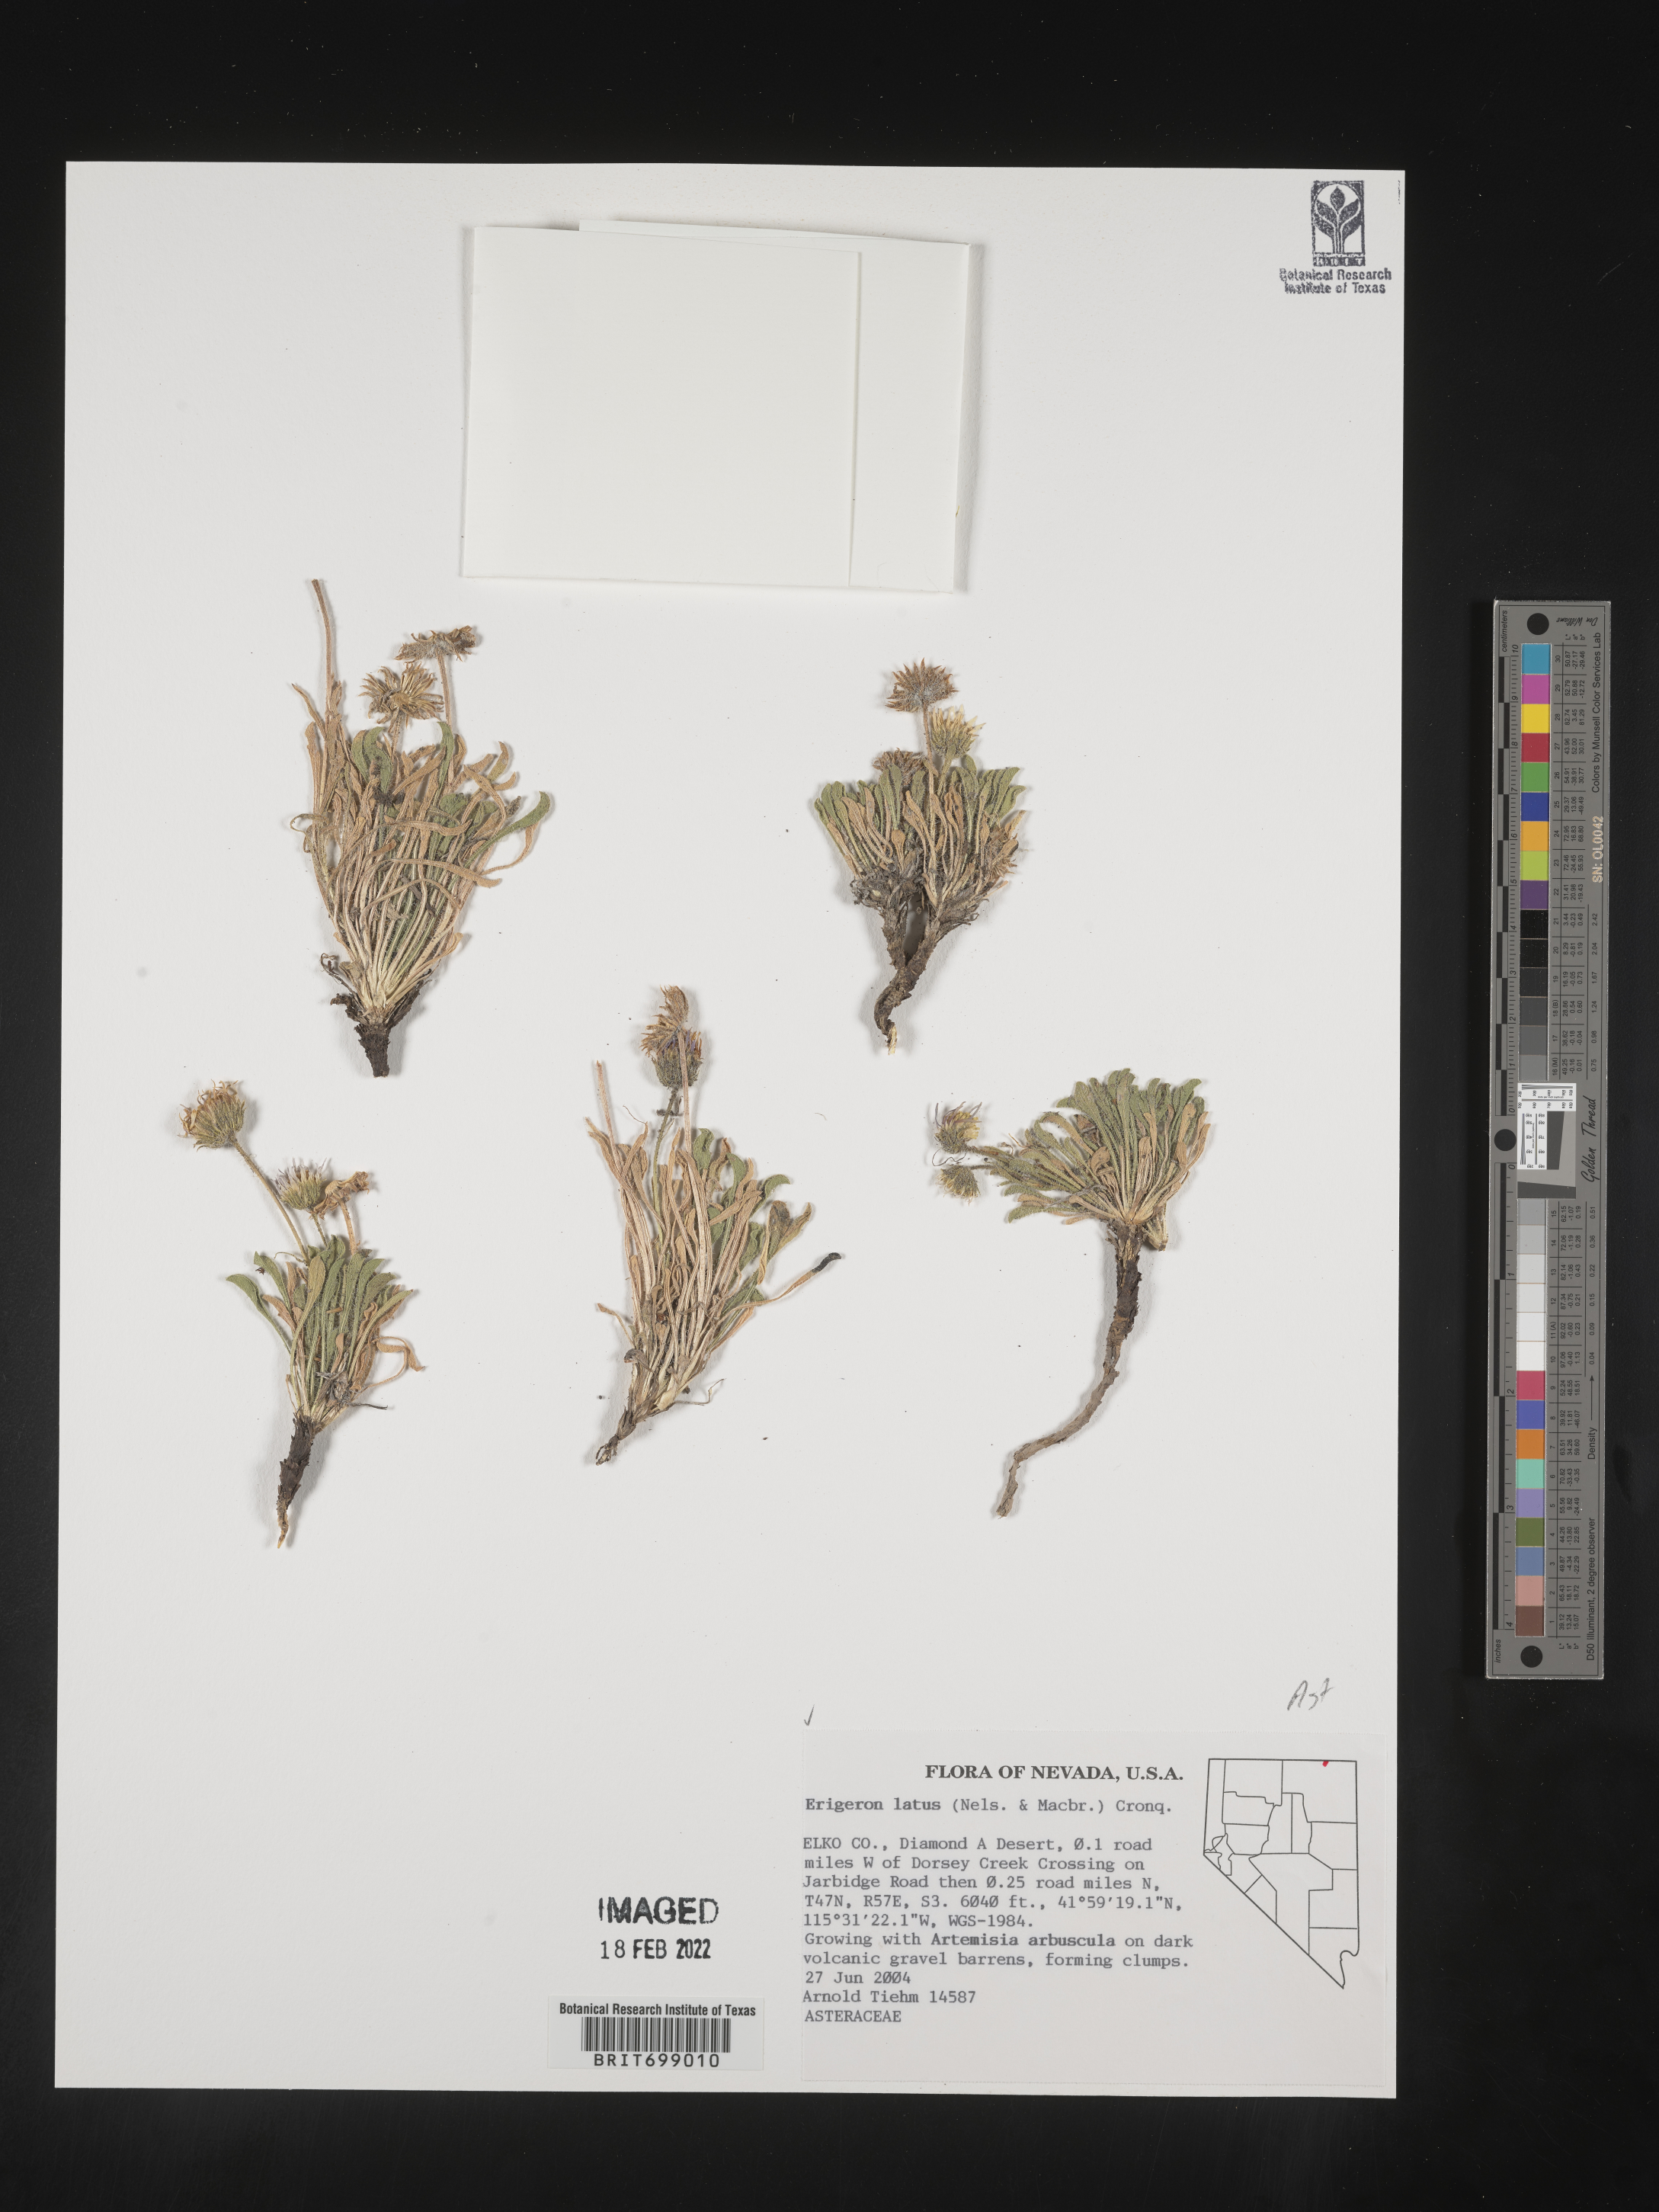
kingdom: Plantae
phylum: Tracheophyta
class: Magnoliopsida
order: Asterales
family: Asteraceae
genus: Erigeron
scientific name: Erigeron latus
